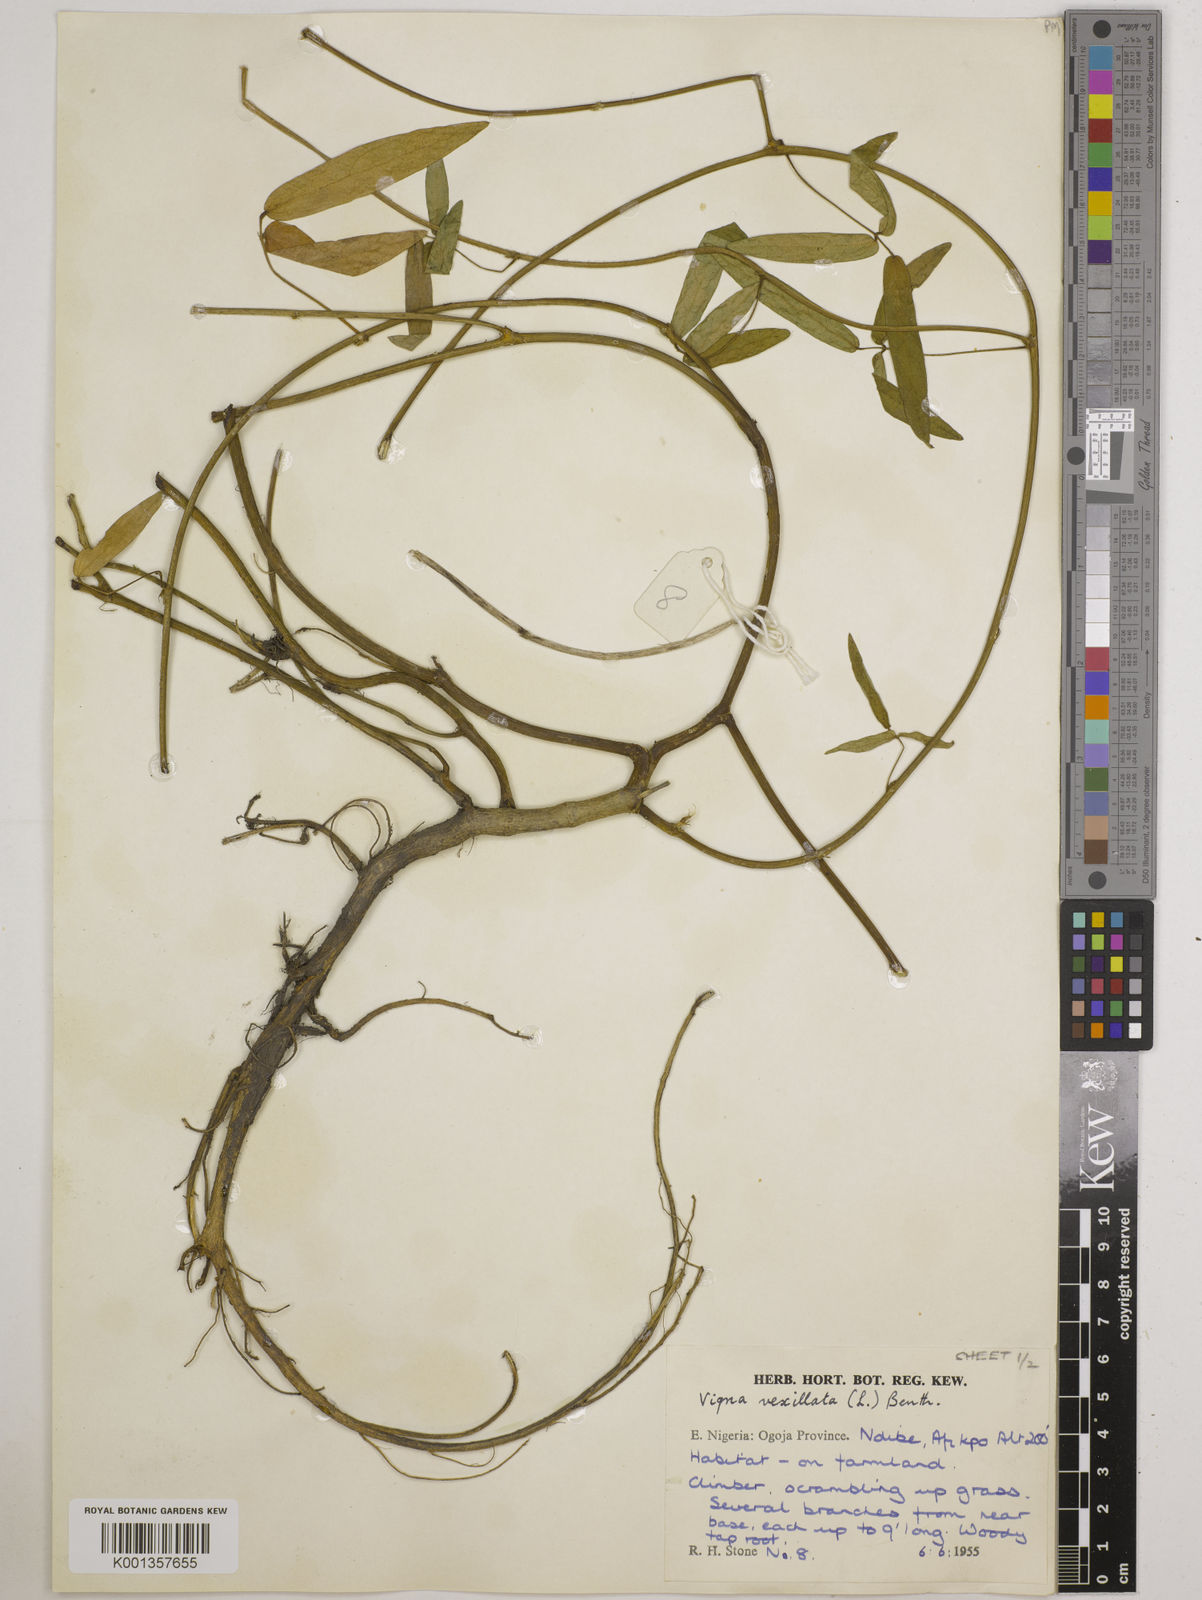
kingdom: Plantae
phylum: Tracheophyta
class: Magnoliopsida
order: Fabales
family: Fabaceae
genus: Vigna
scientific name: Vigna vexillata
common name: Zombi pea
